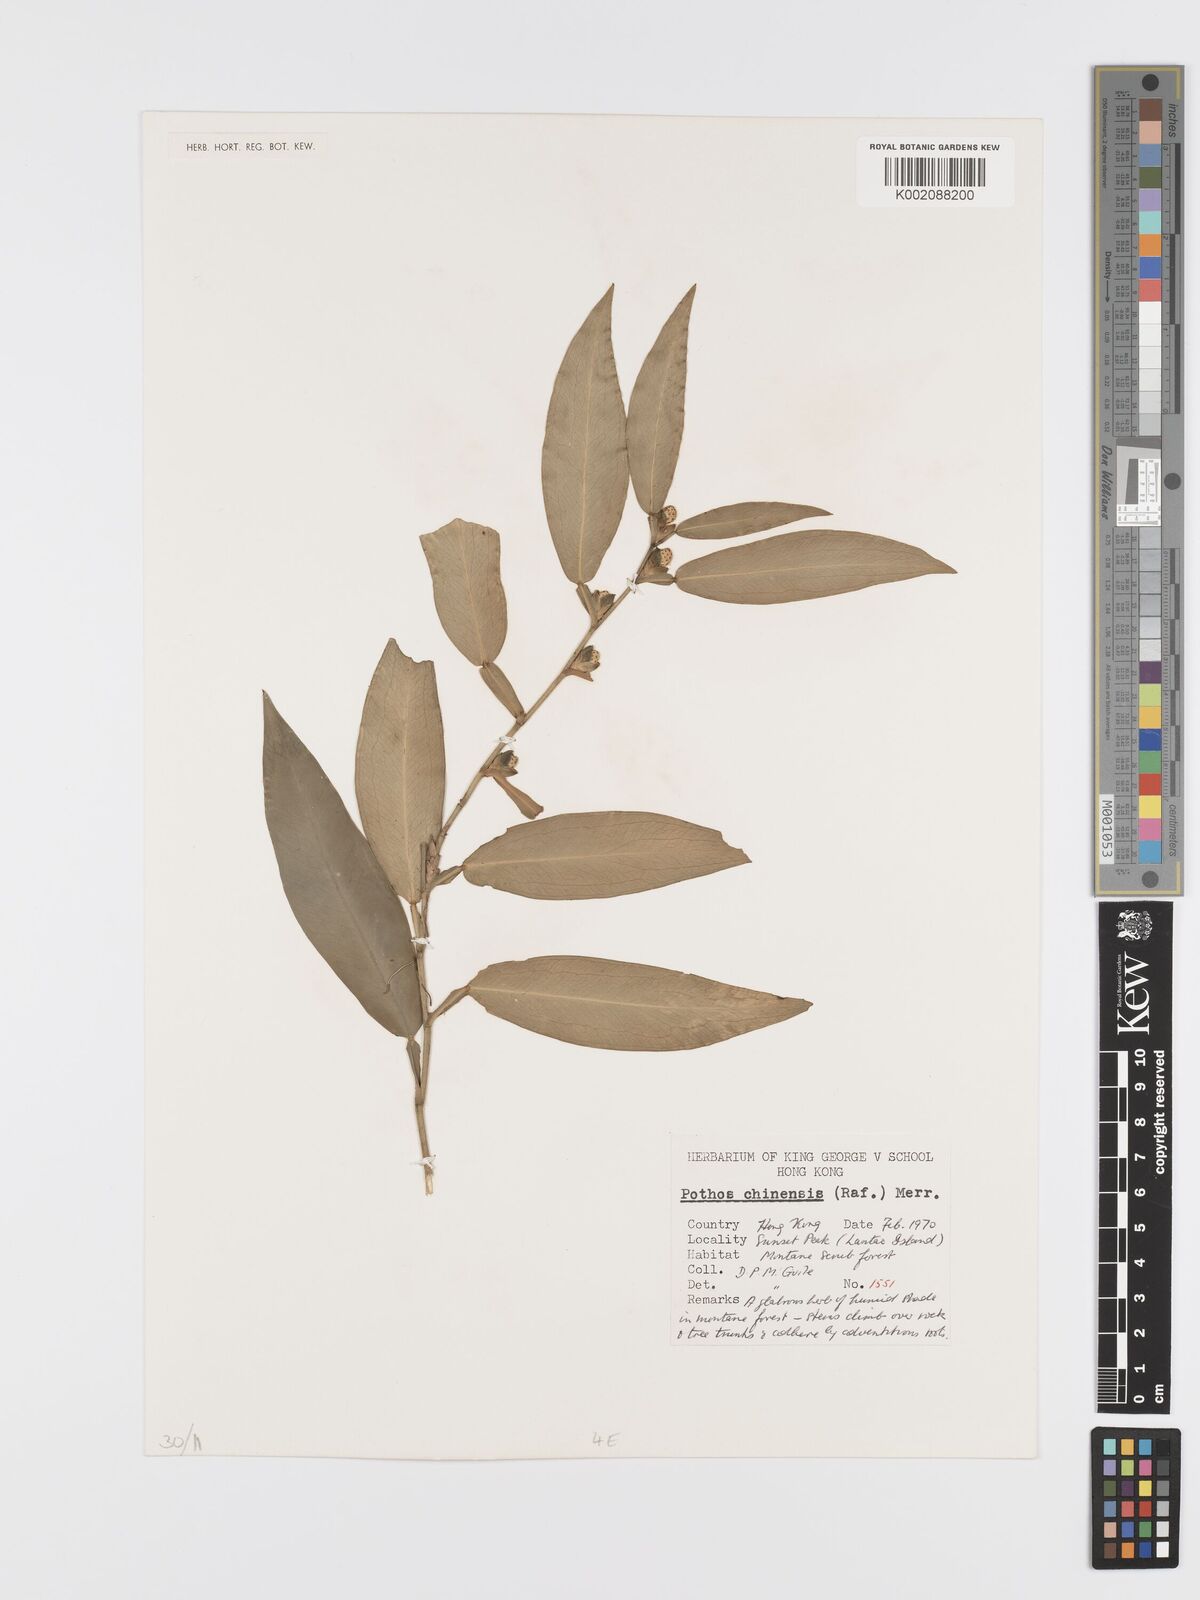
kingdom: Plantae
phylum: Tracheophyta
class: Liliopsida
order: Alismatales
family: Araceae
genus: Pothos
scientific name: Pothos chinensis
